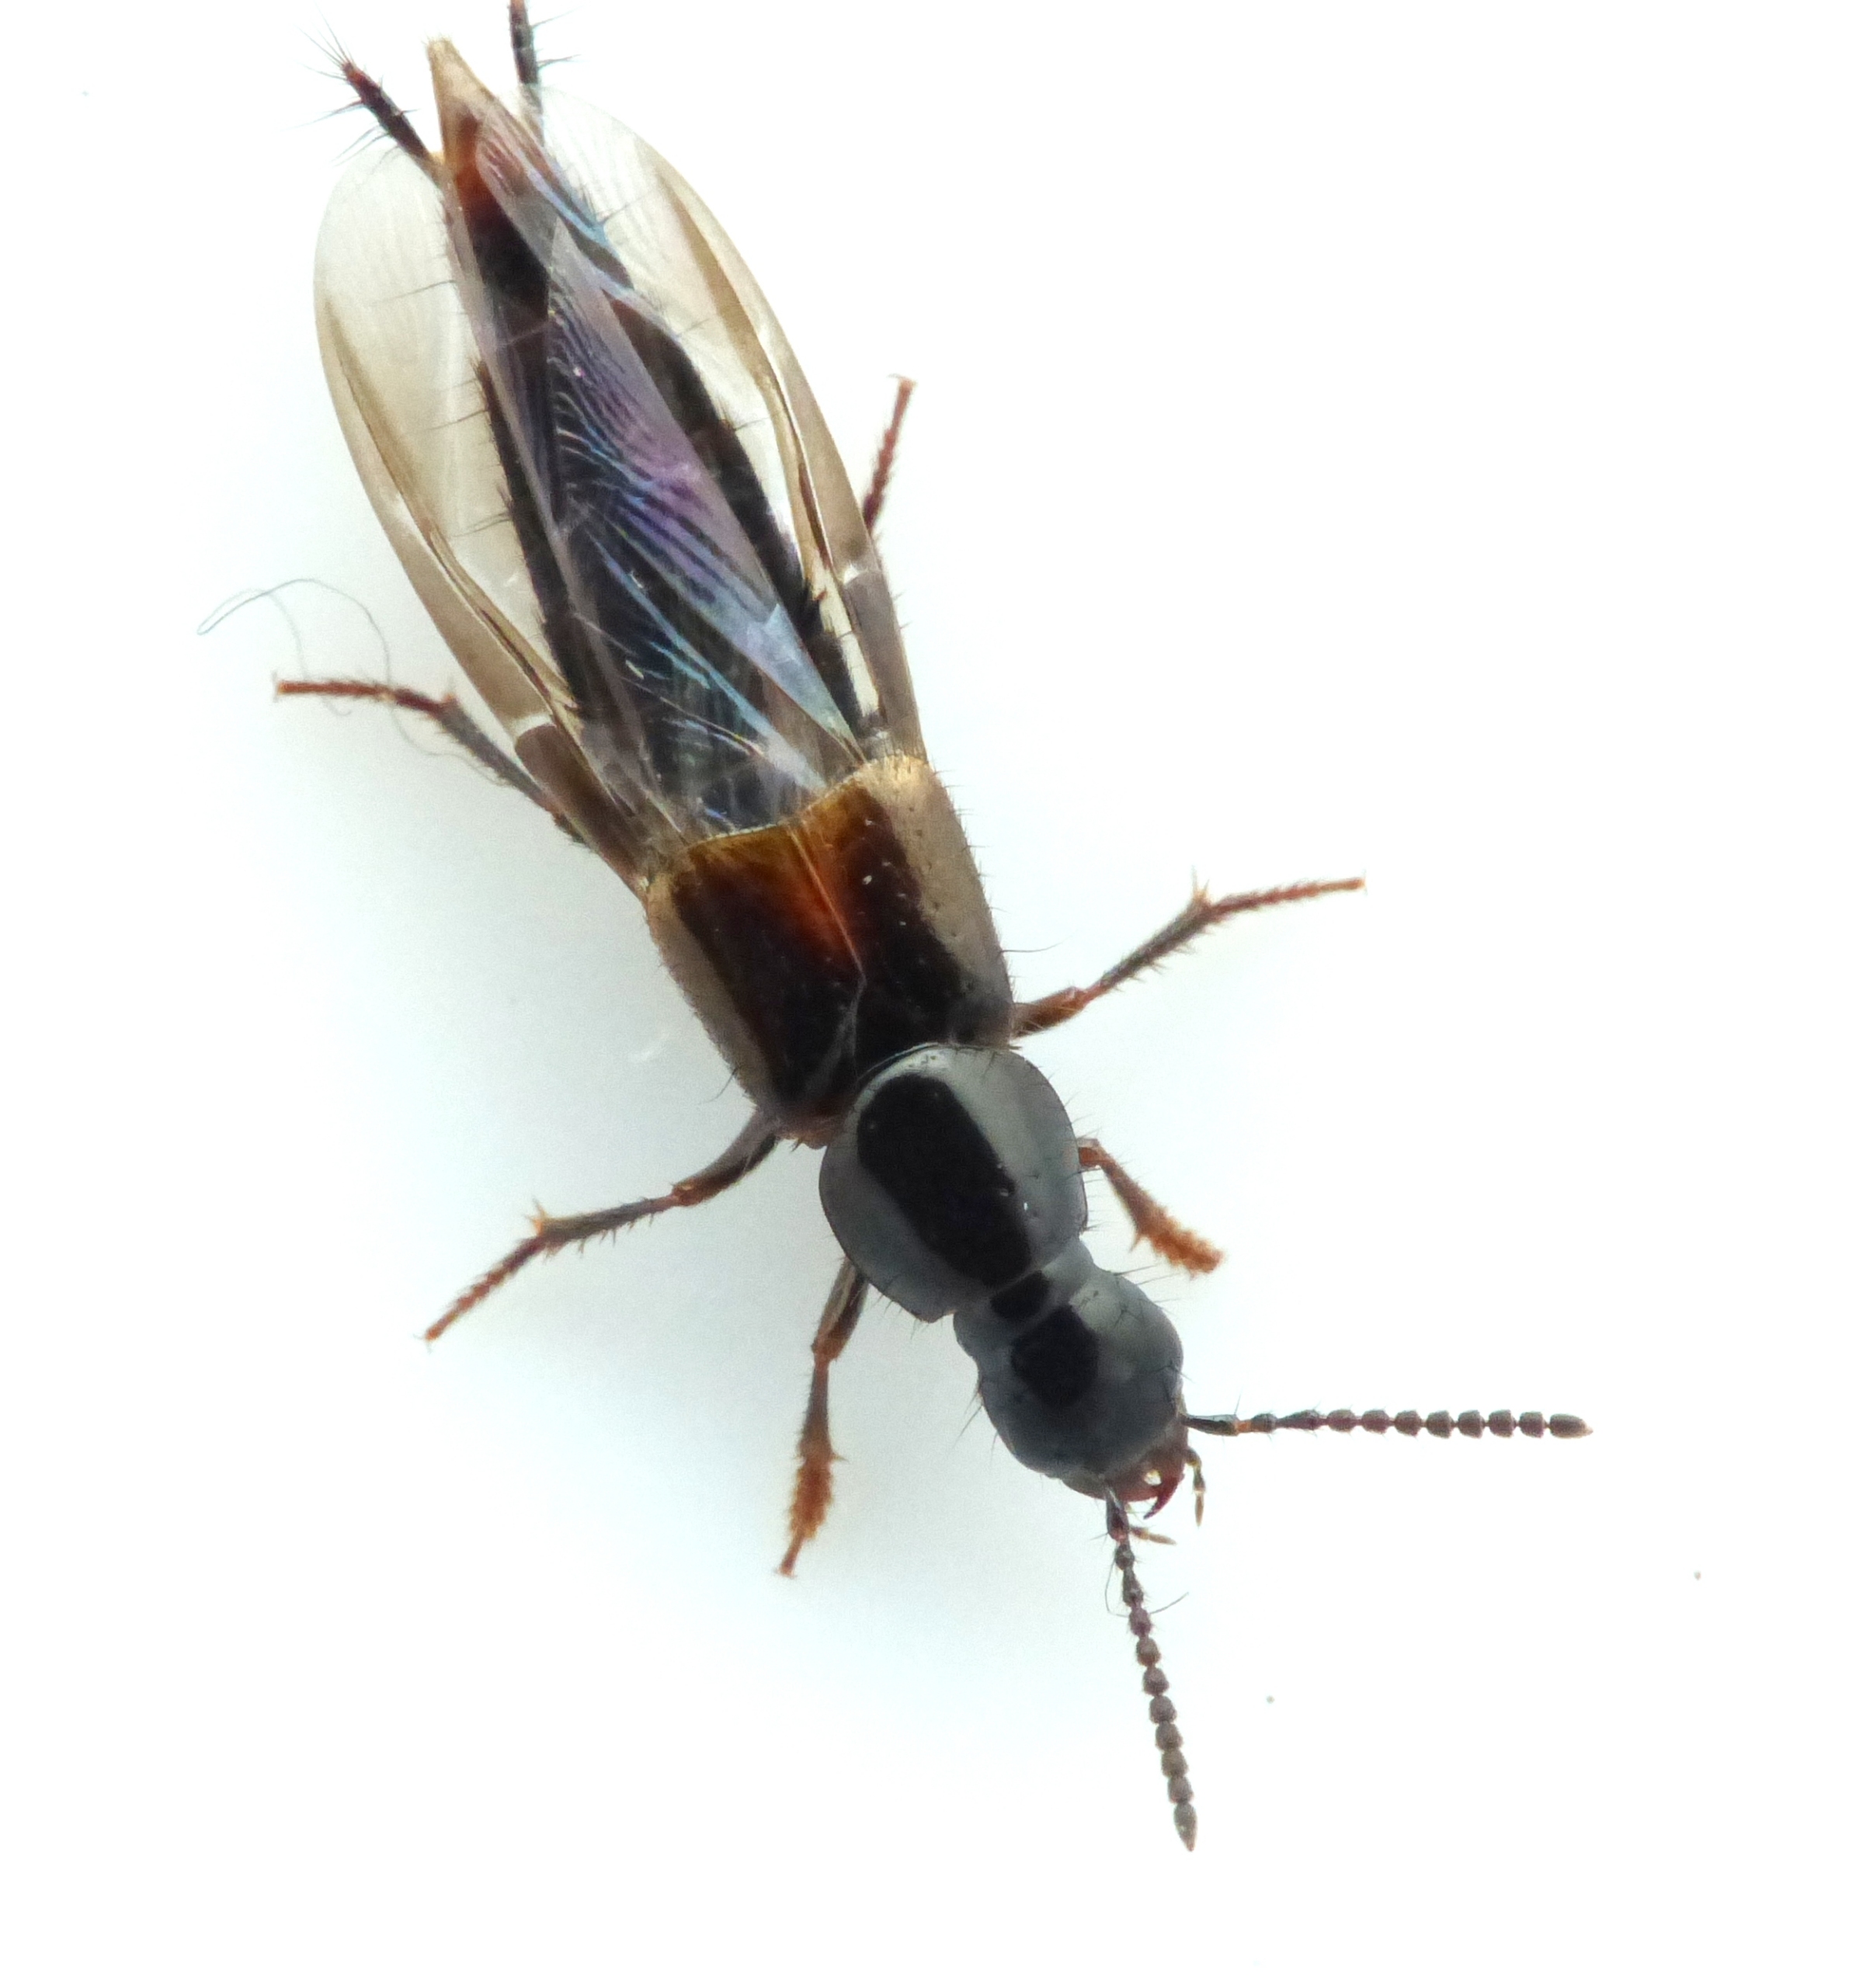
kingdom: Animalia
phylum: Arthropoda
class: Insecta
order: Coleoptera
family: Staphylinidae
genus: Quedius
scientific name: Quedius cinctus
